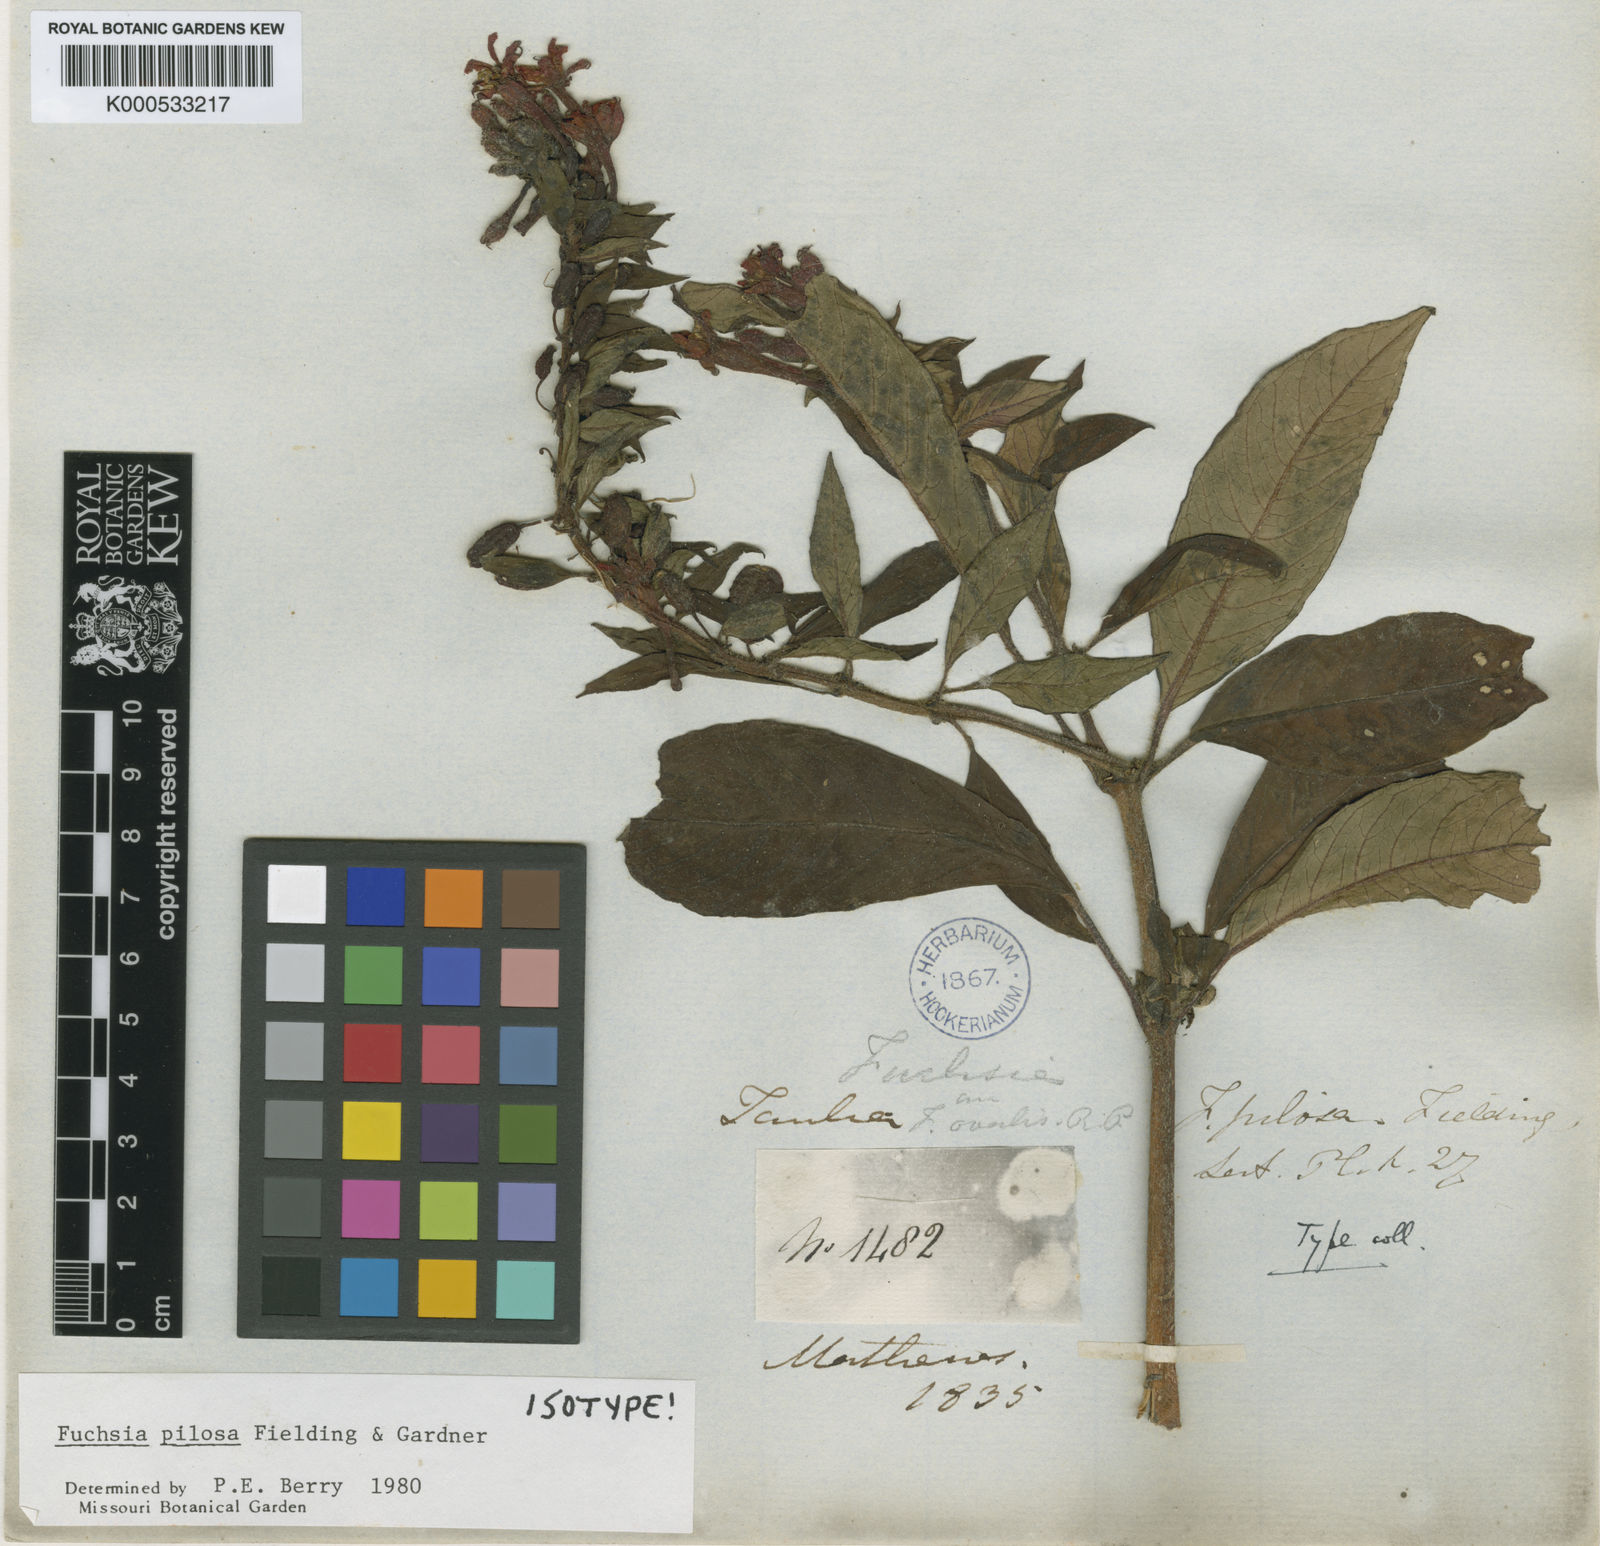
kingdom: Plantae
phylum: Tracheophyta
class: Magnoliopsida
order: Myrtales
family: Onagraceae
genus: Fuchsia
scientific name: Fuchsia pilosa
